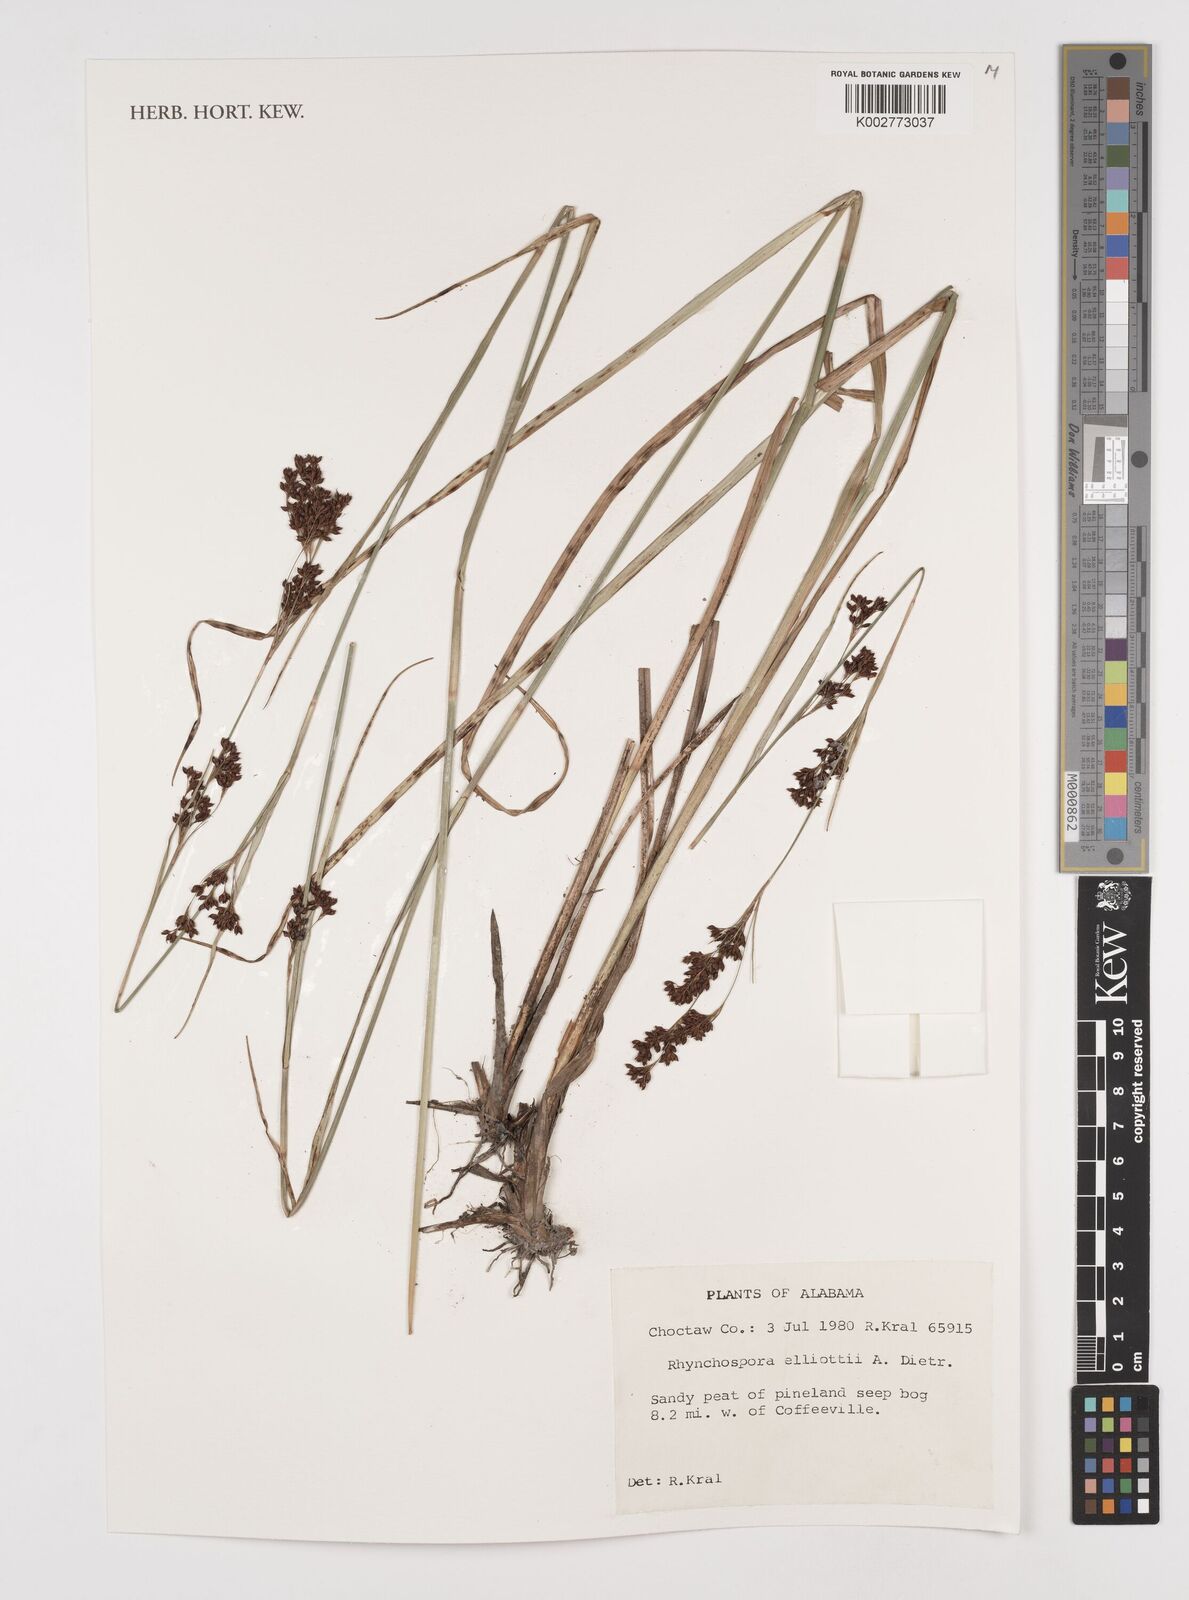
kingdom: Plantae
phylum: Tracheophyta
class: Liliopsida
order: Poales
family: Cyperaceae
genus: Rhynchospora
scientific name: Rhynchospora elliottii
